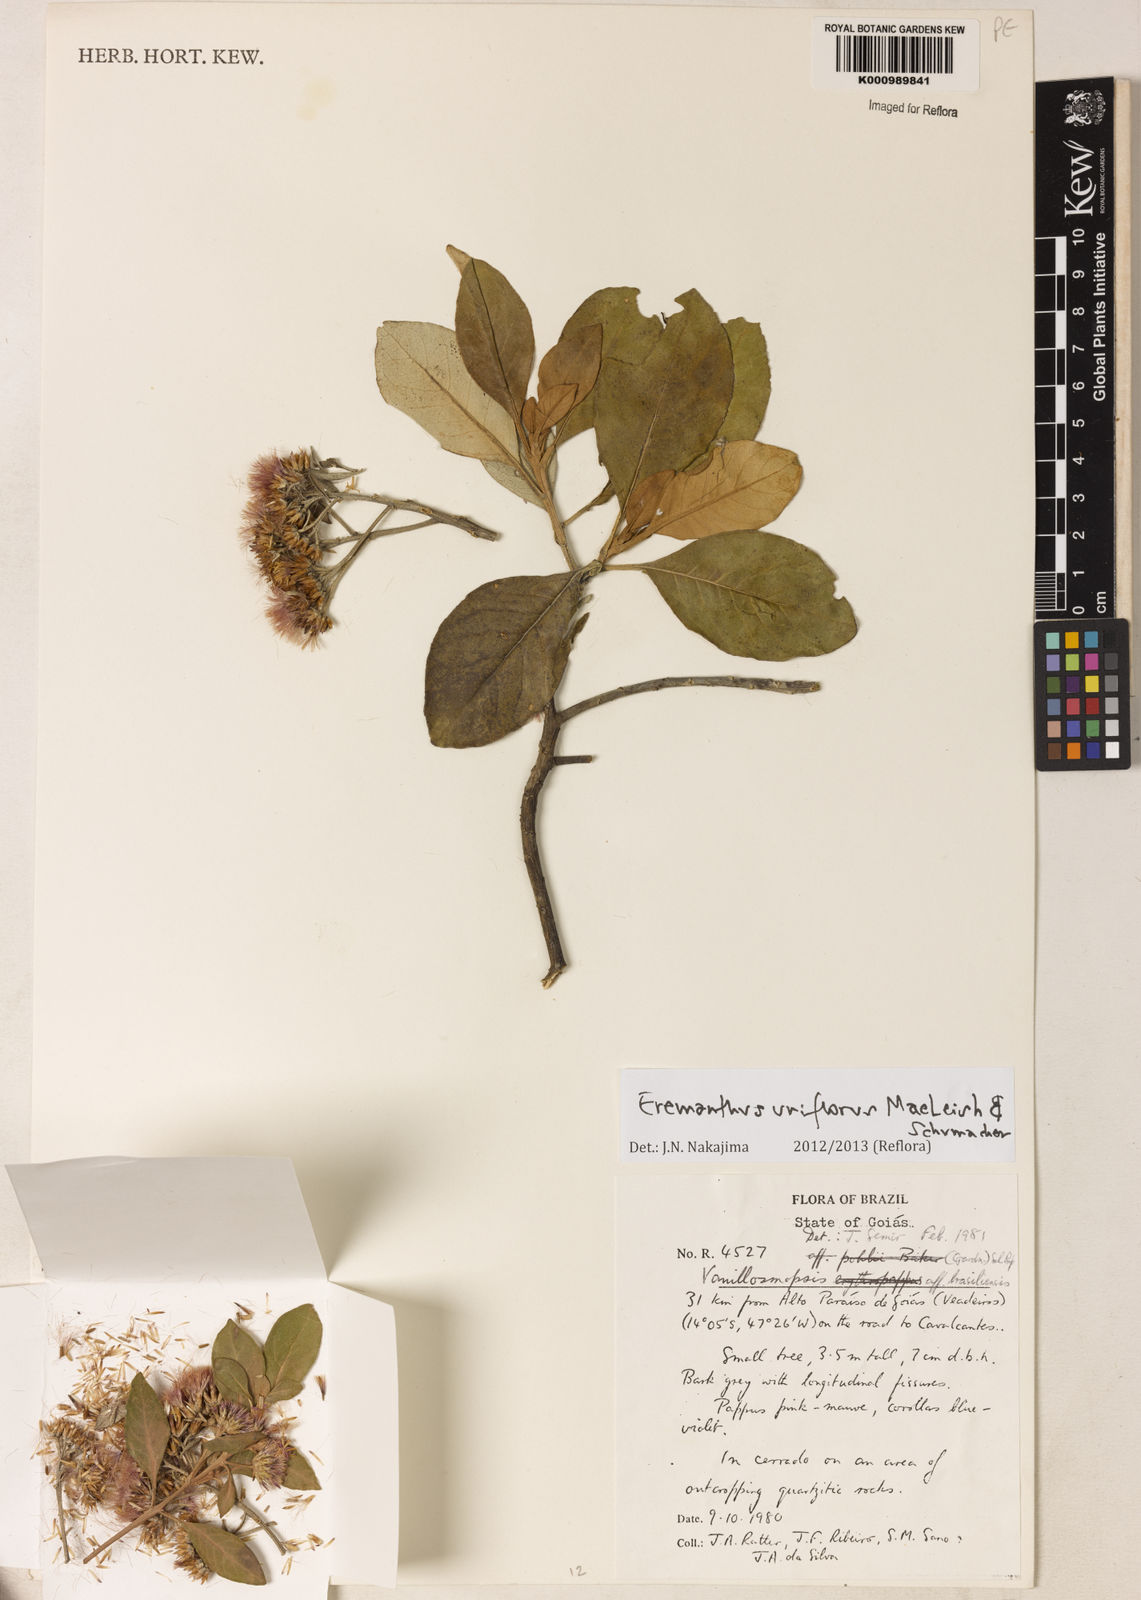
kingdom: Plantae
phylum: Tracheophyta
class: Magnoliopsida
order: Asterales
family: Asteraceae
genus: Eremanthus
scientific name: Eremanthus uniflorus
